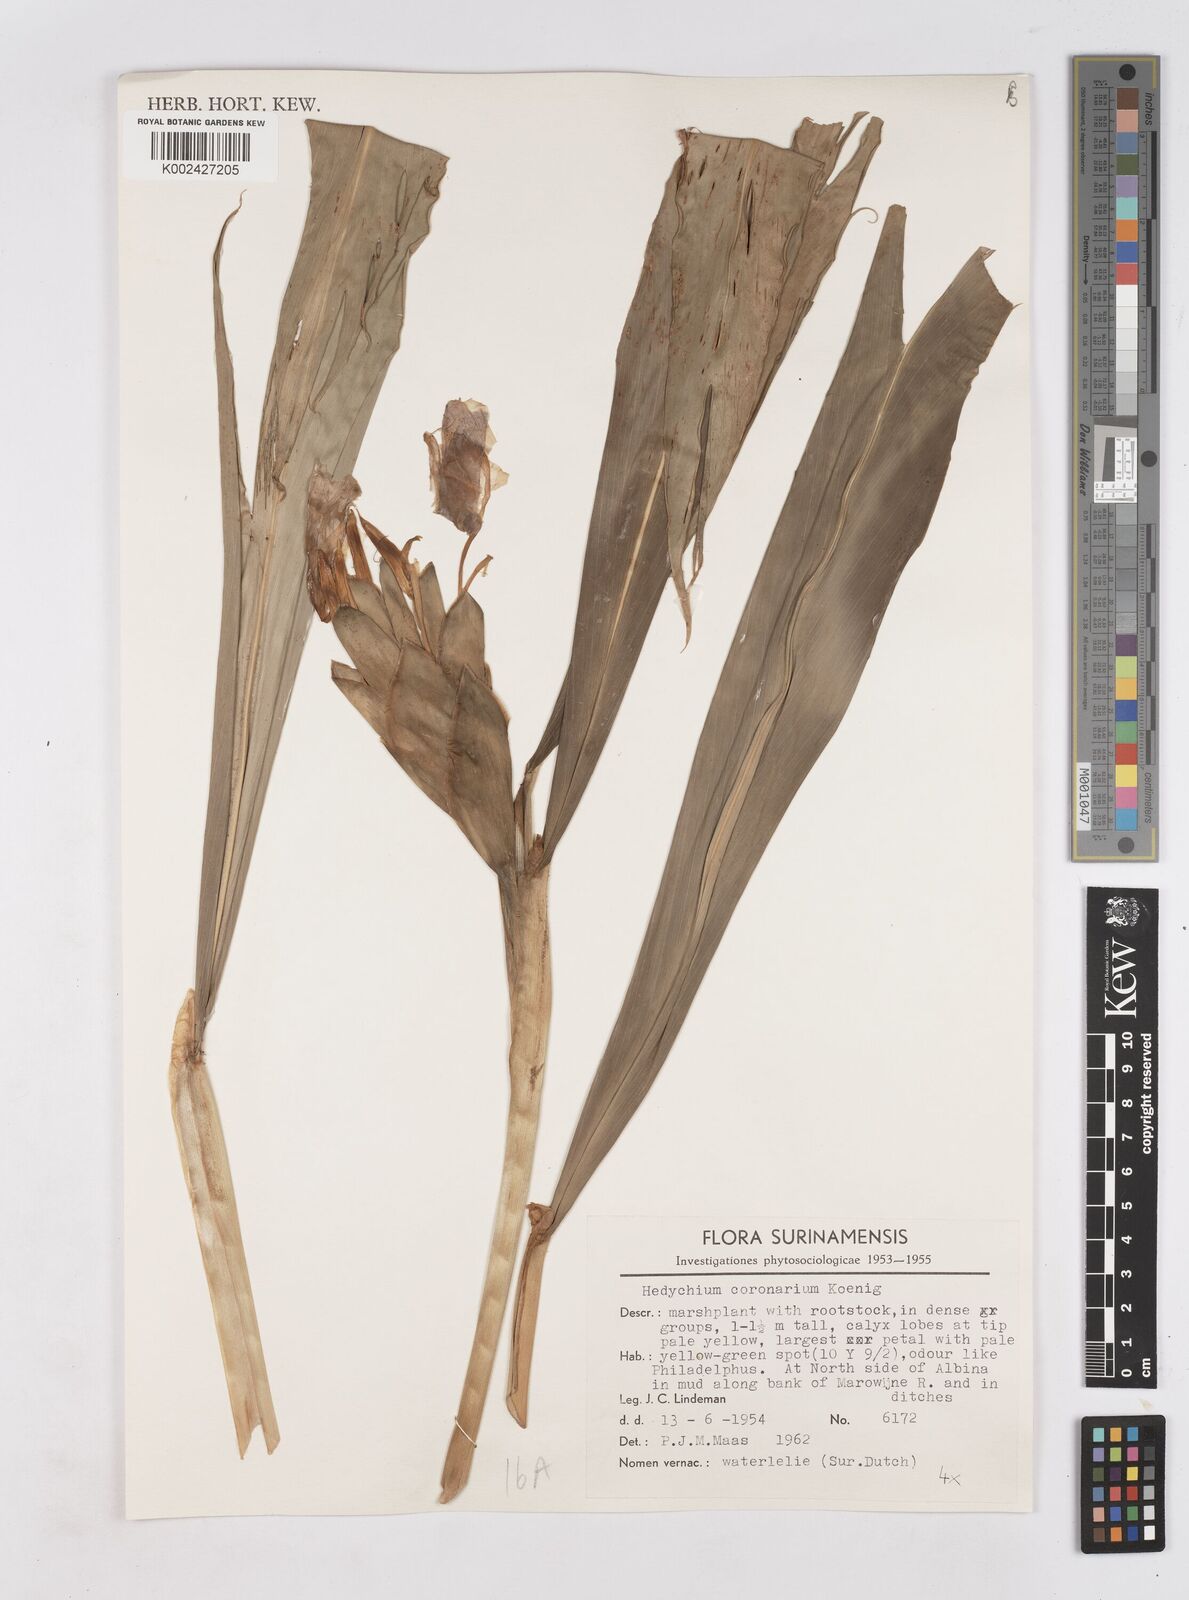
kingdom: Plantae
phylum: Tracheophyta
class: Liliopsida
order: Zingiberales
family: Zingiberaceae
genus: Hedychium
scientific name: Hedychium coronarium
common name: White garland-lily
